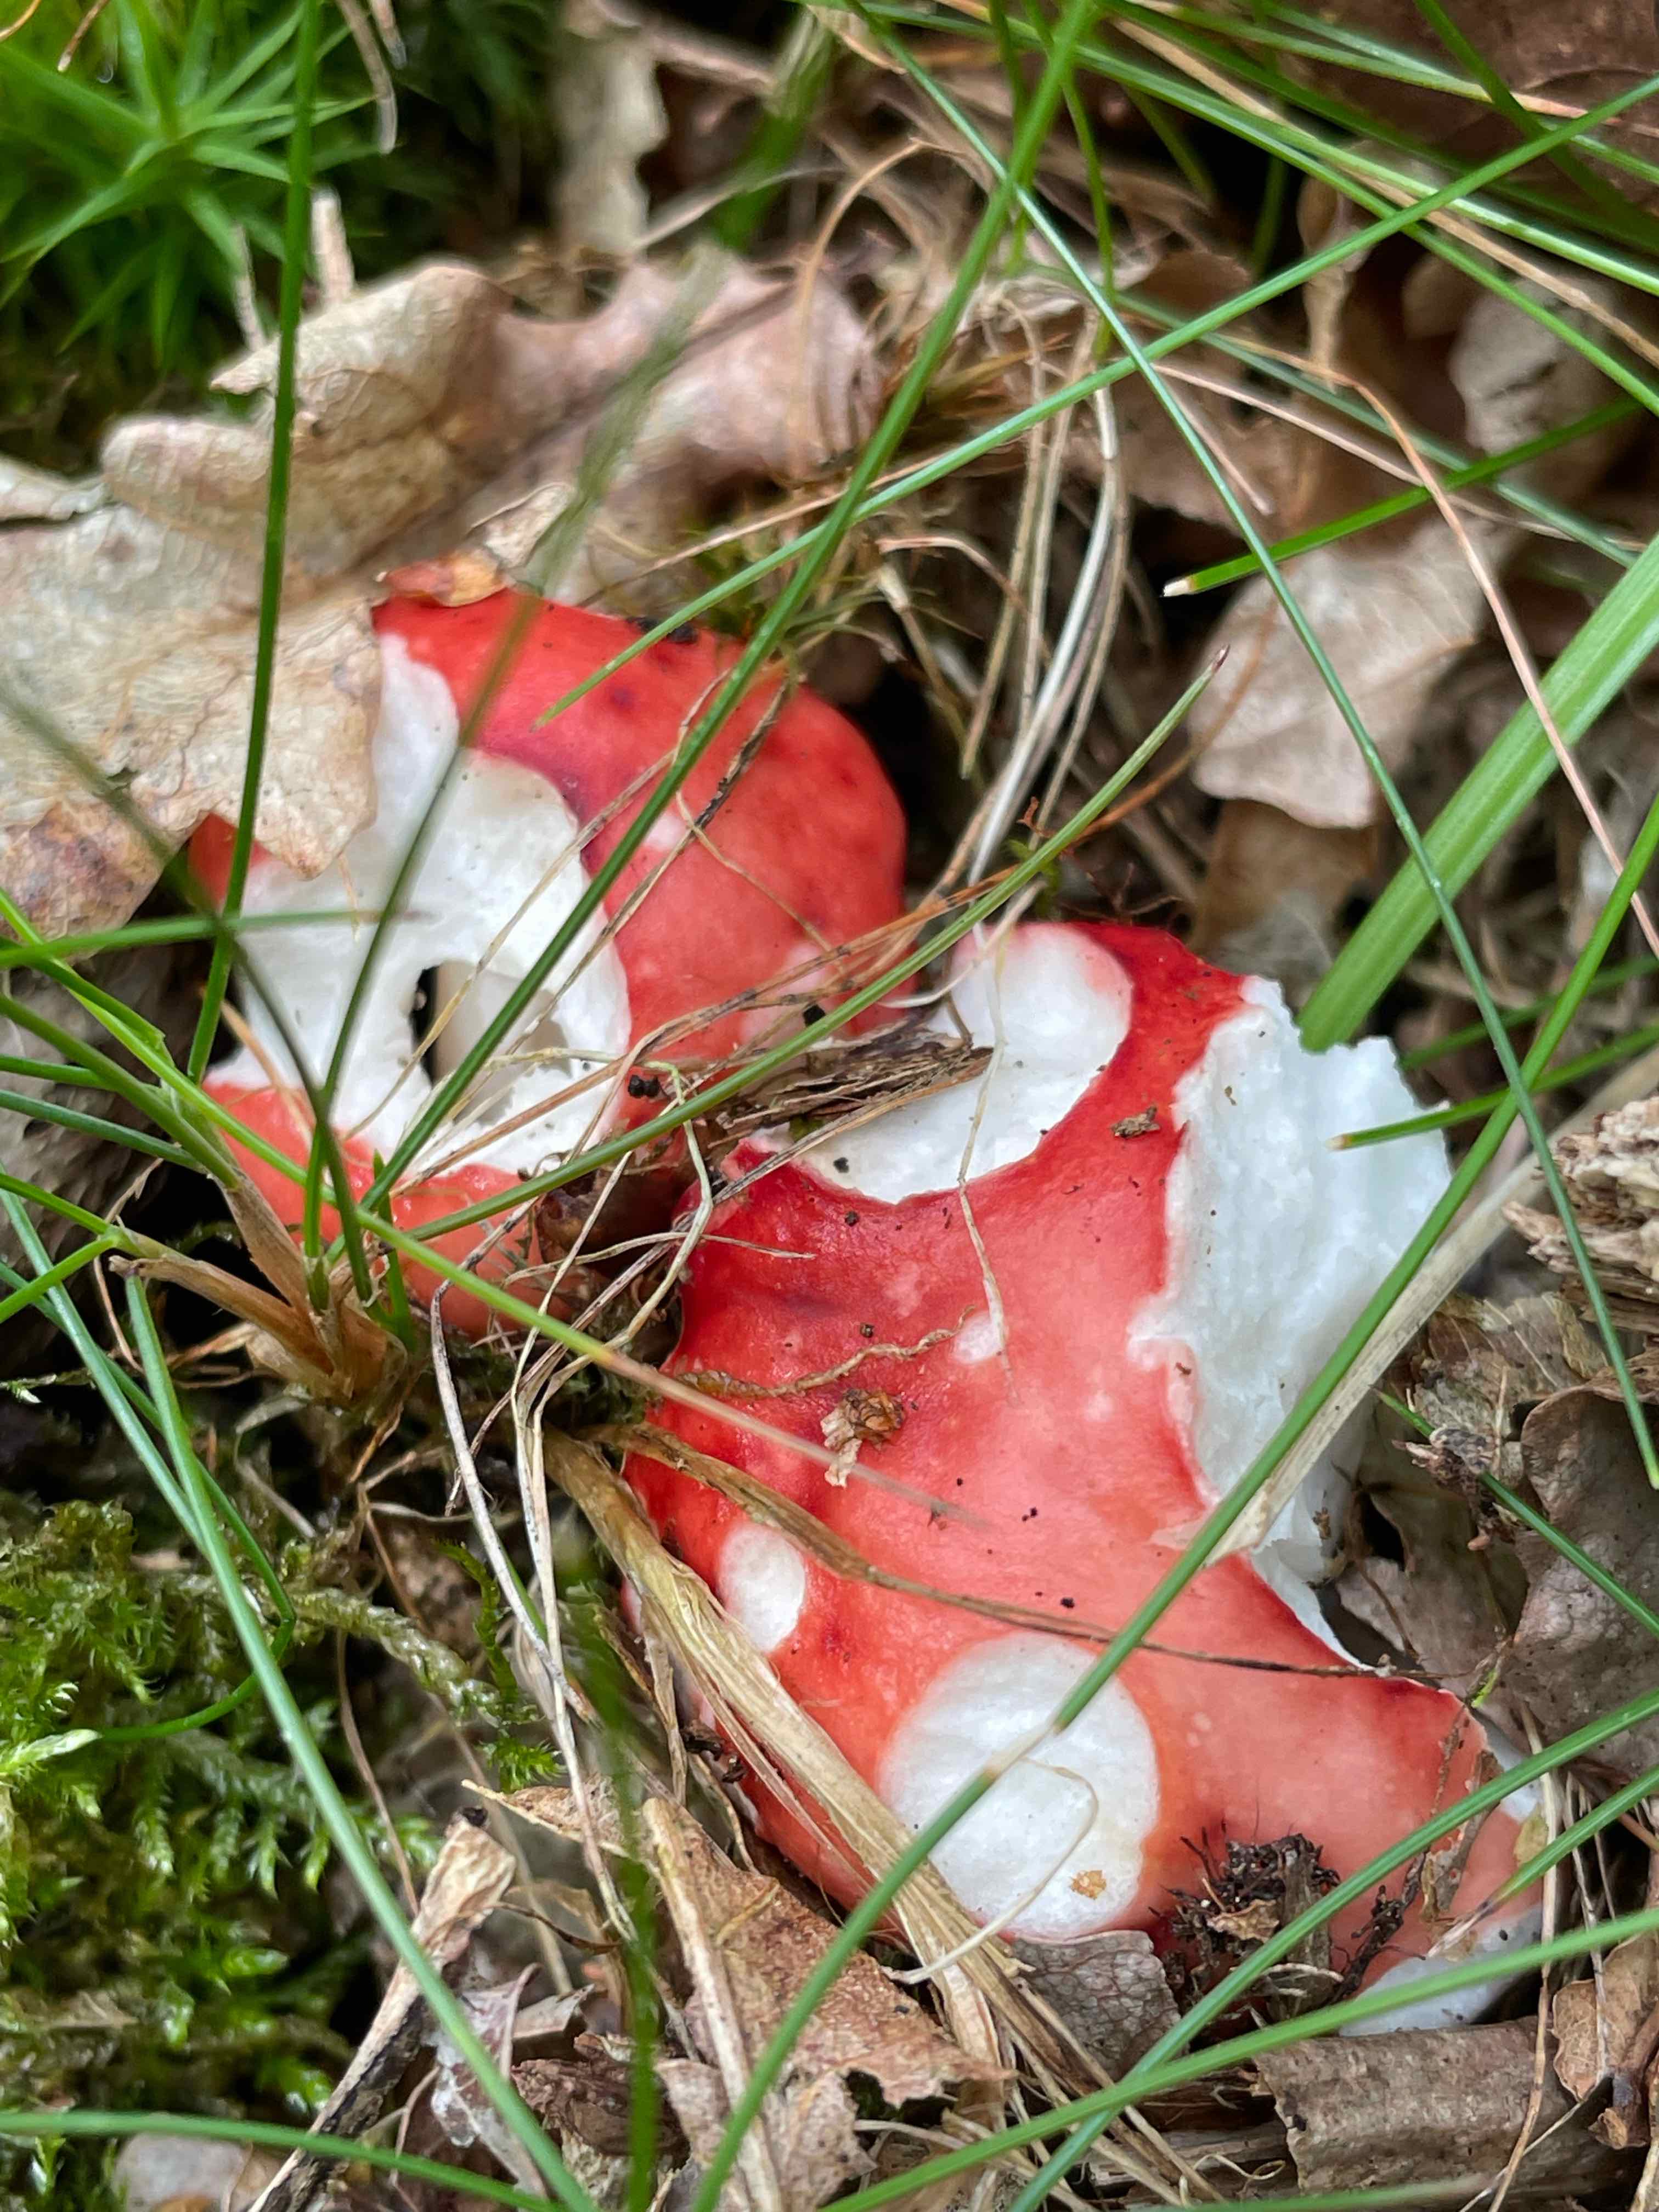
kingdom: Fungi
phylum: Basidiomycota
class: Agaricomycetes
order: Russulales
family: Russulaceae
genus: Russula
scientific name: Russula
